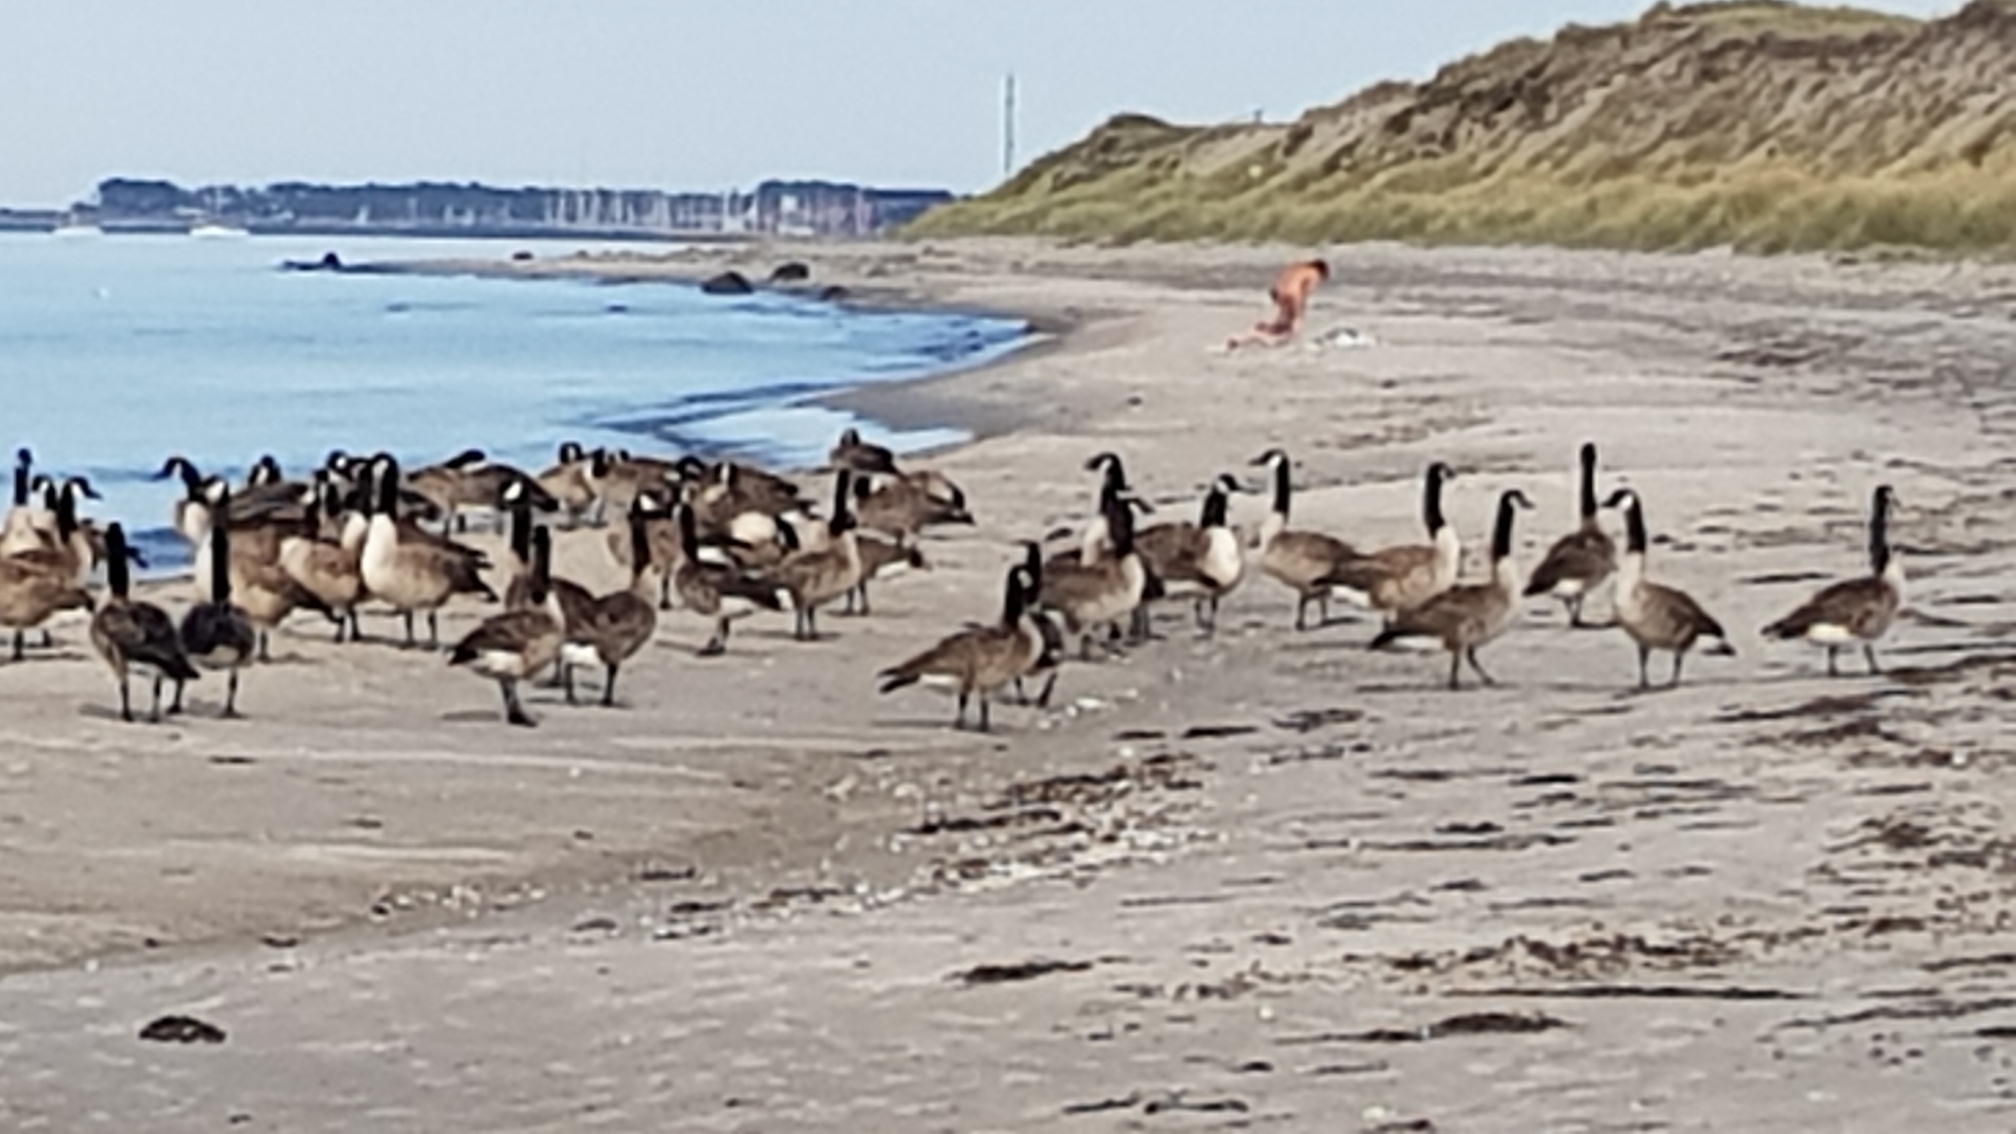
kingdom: Animalia
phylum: Chordata
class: Aves
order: Anseriformes
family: Anatidae
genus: Branta
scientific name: Branta canadensis
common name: Canadagås
